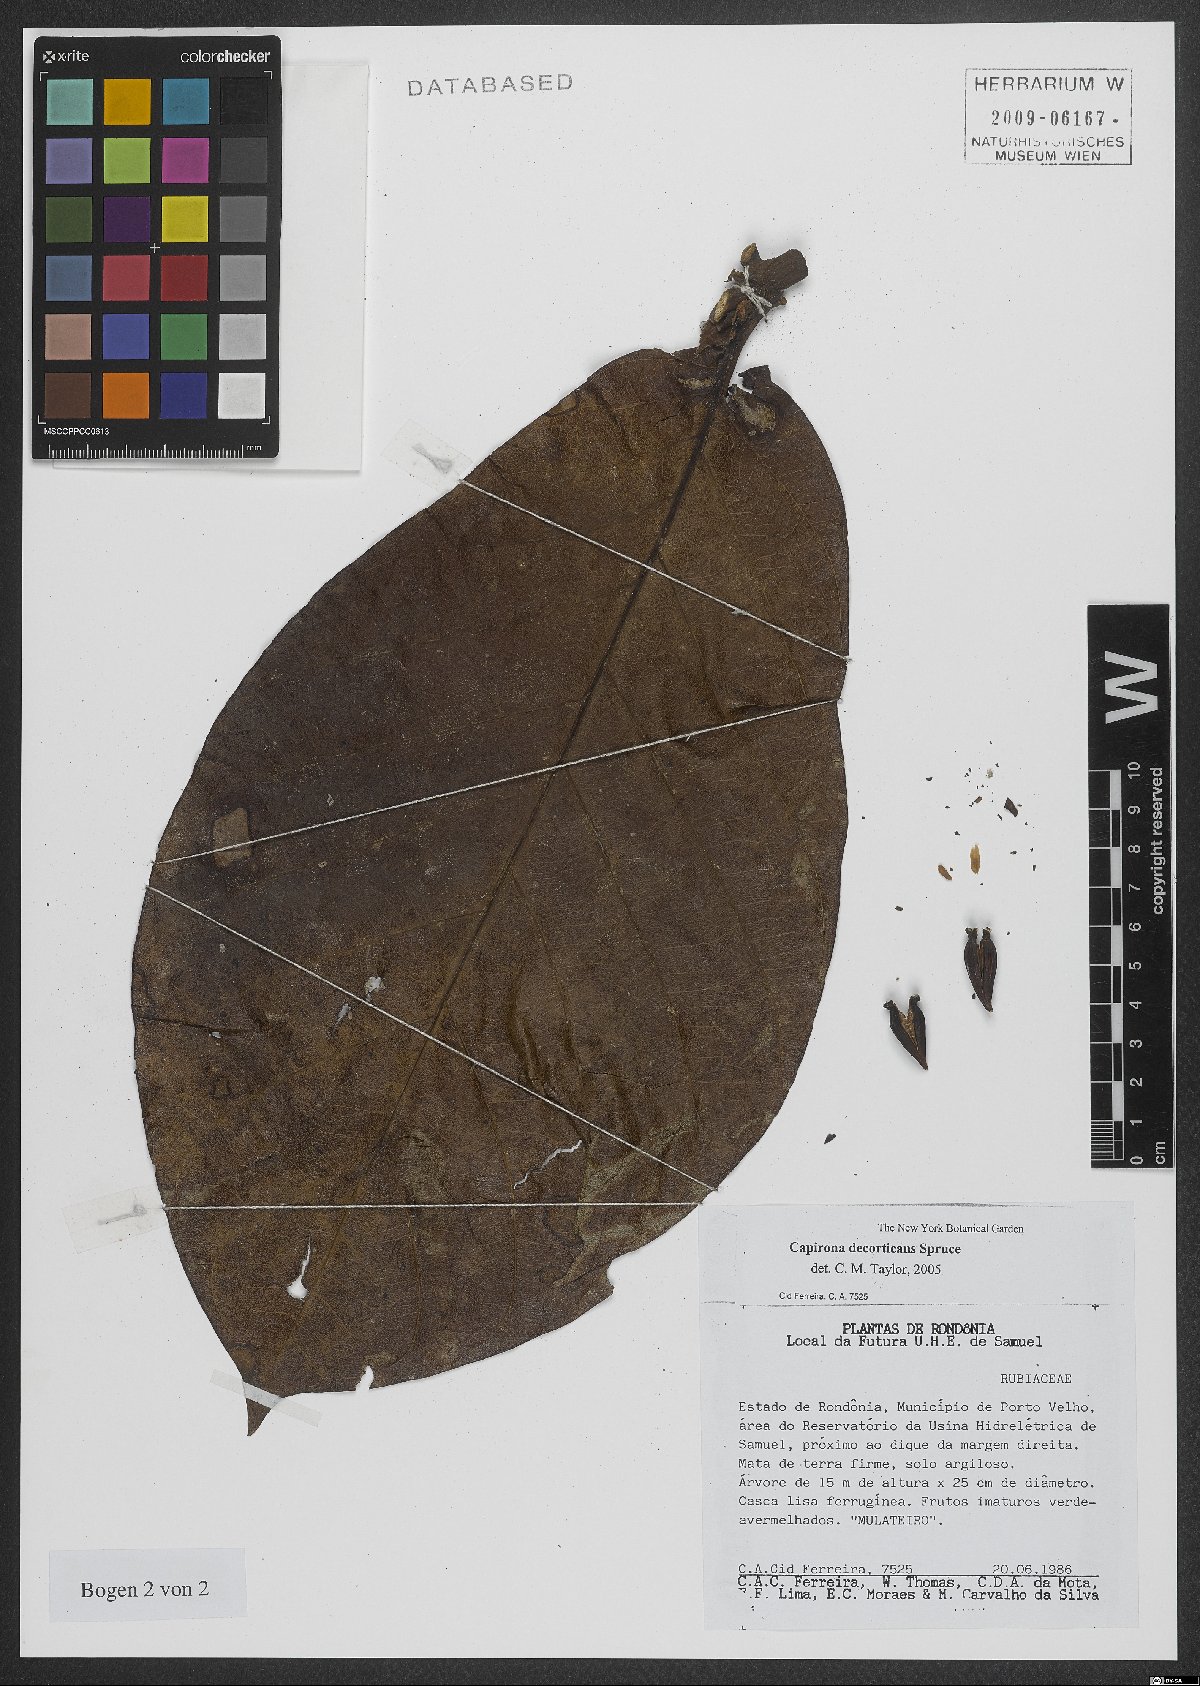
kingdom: Plantae
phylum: Tracheophyta
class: Magnoliopsida
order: Gentianales
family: Rubiaceae
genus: Capirona
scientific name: Capirona macrophylla
